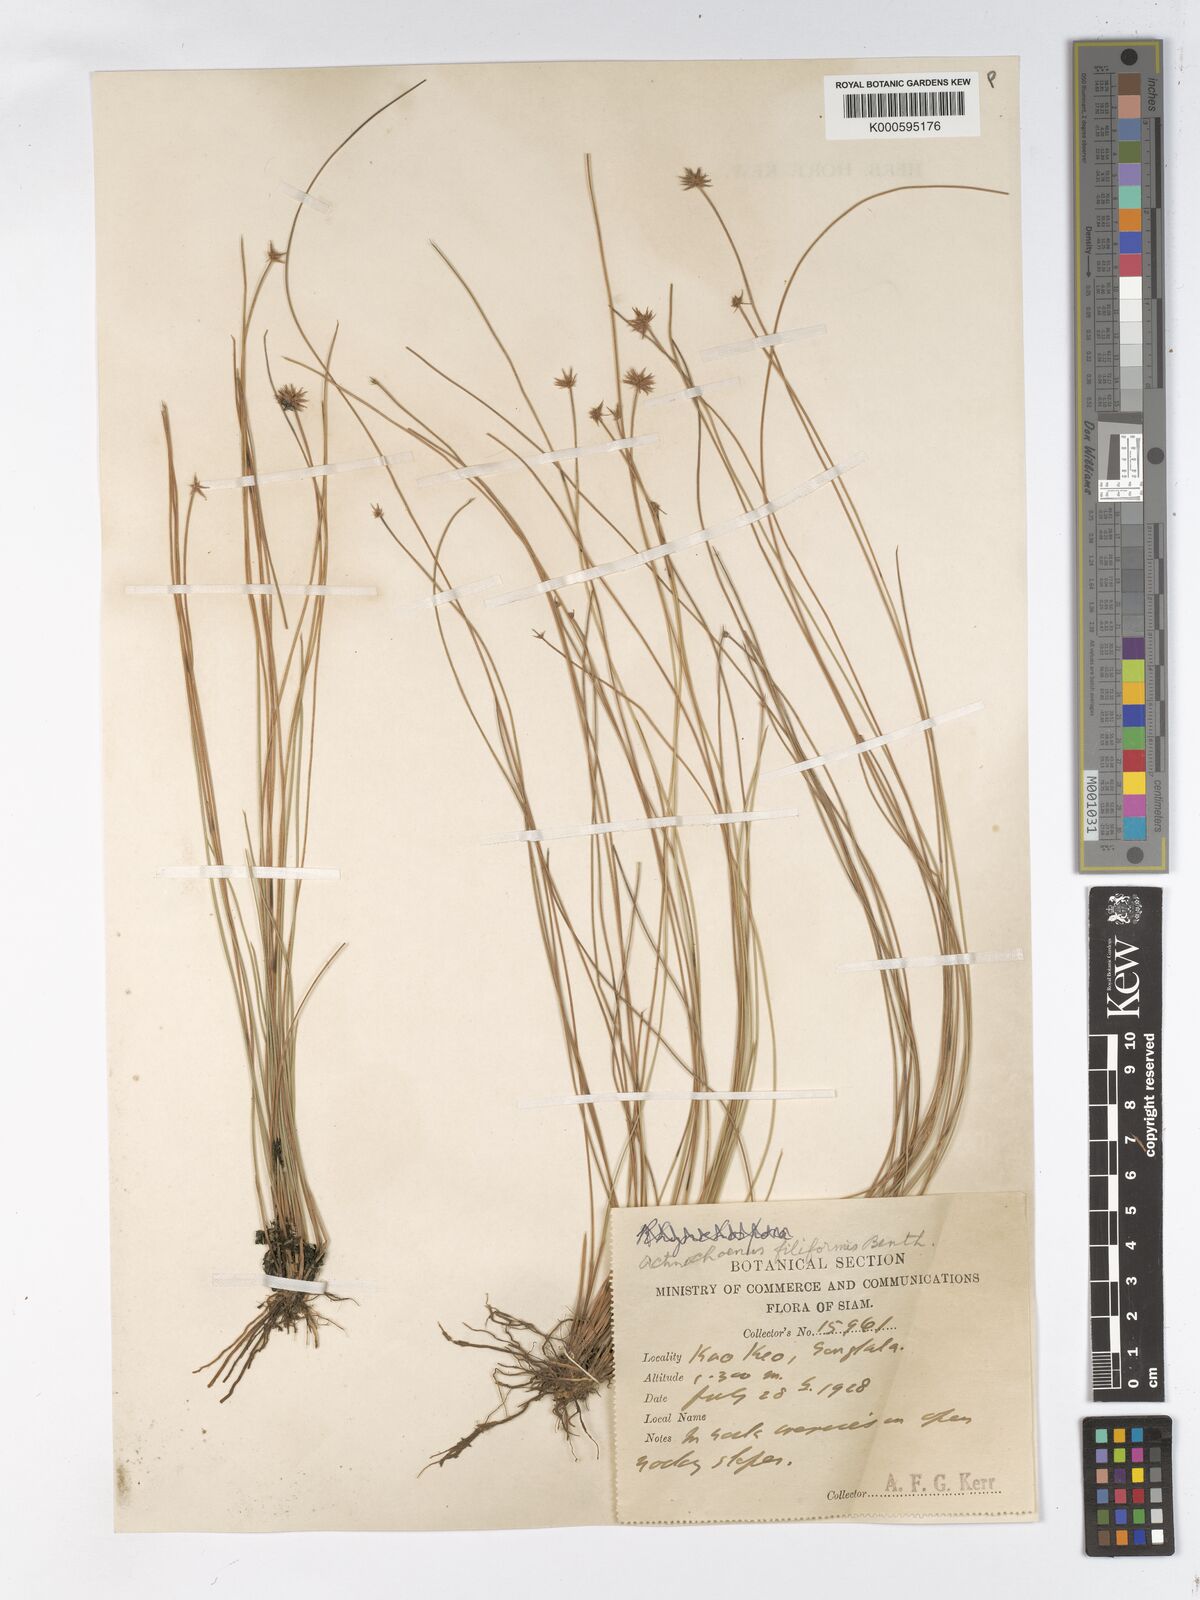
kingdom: Plantae
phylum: Tracheophyta
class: Liliopsida
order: Poales
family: Cyperaceae
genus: Actinoschoenus
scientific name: Actinoschoenus aphyllus
